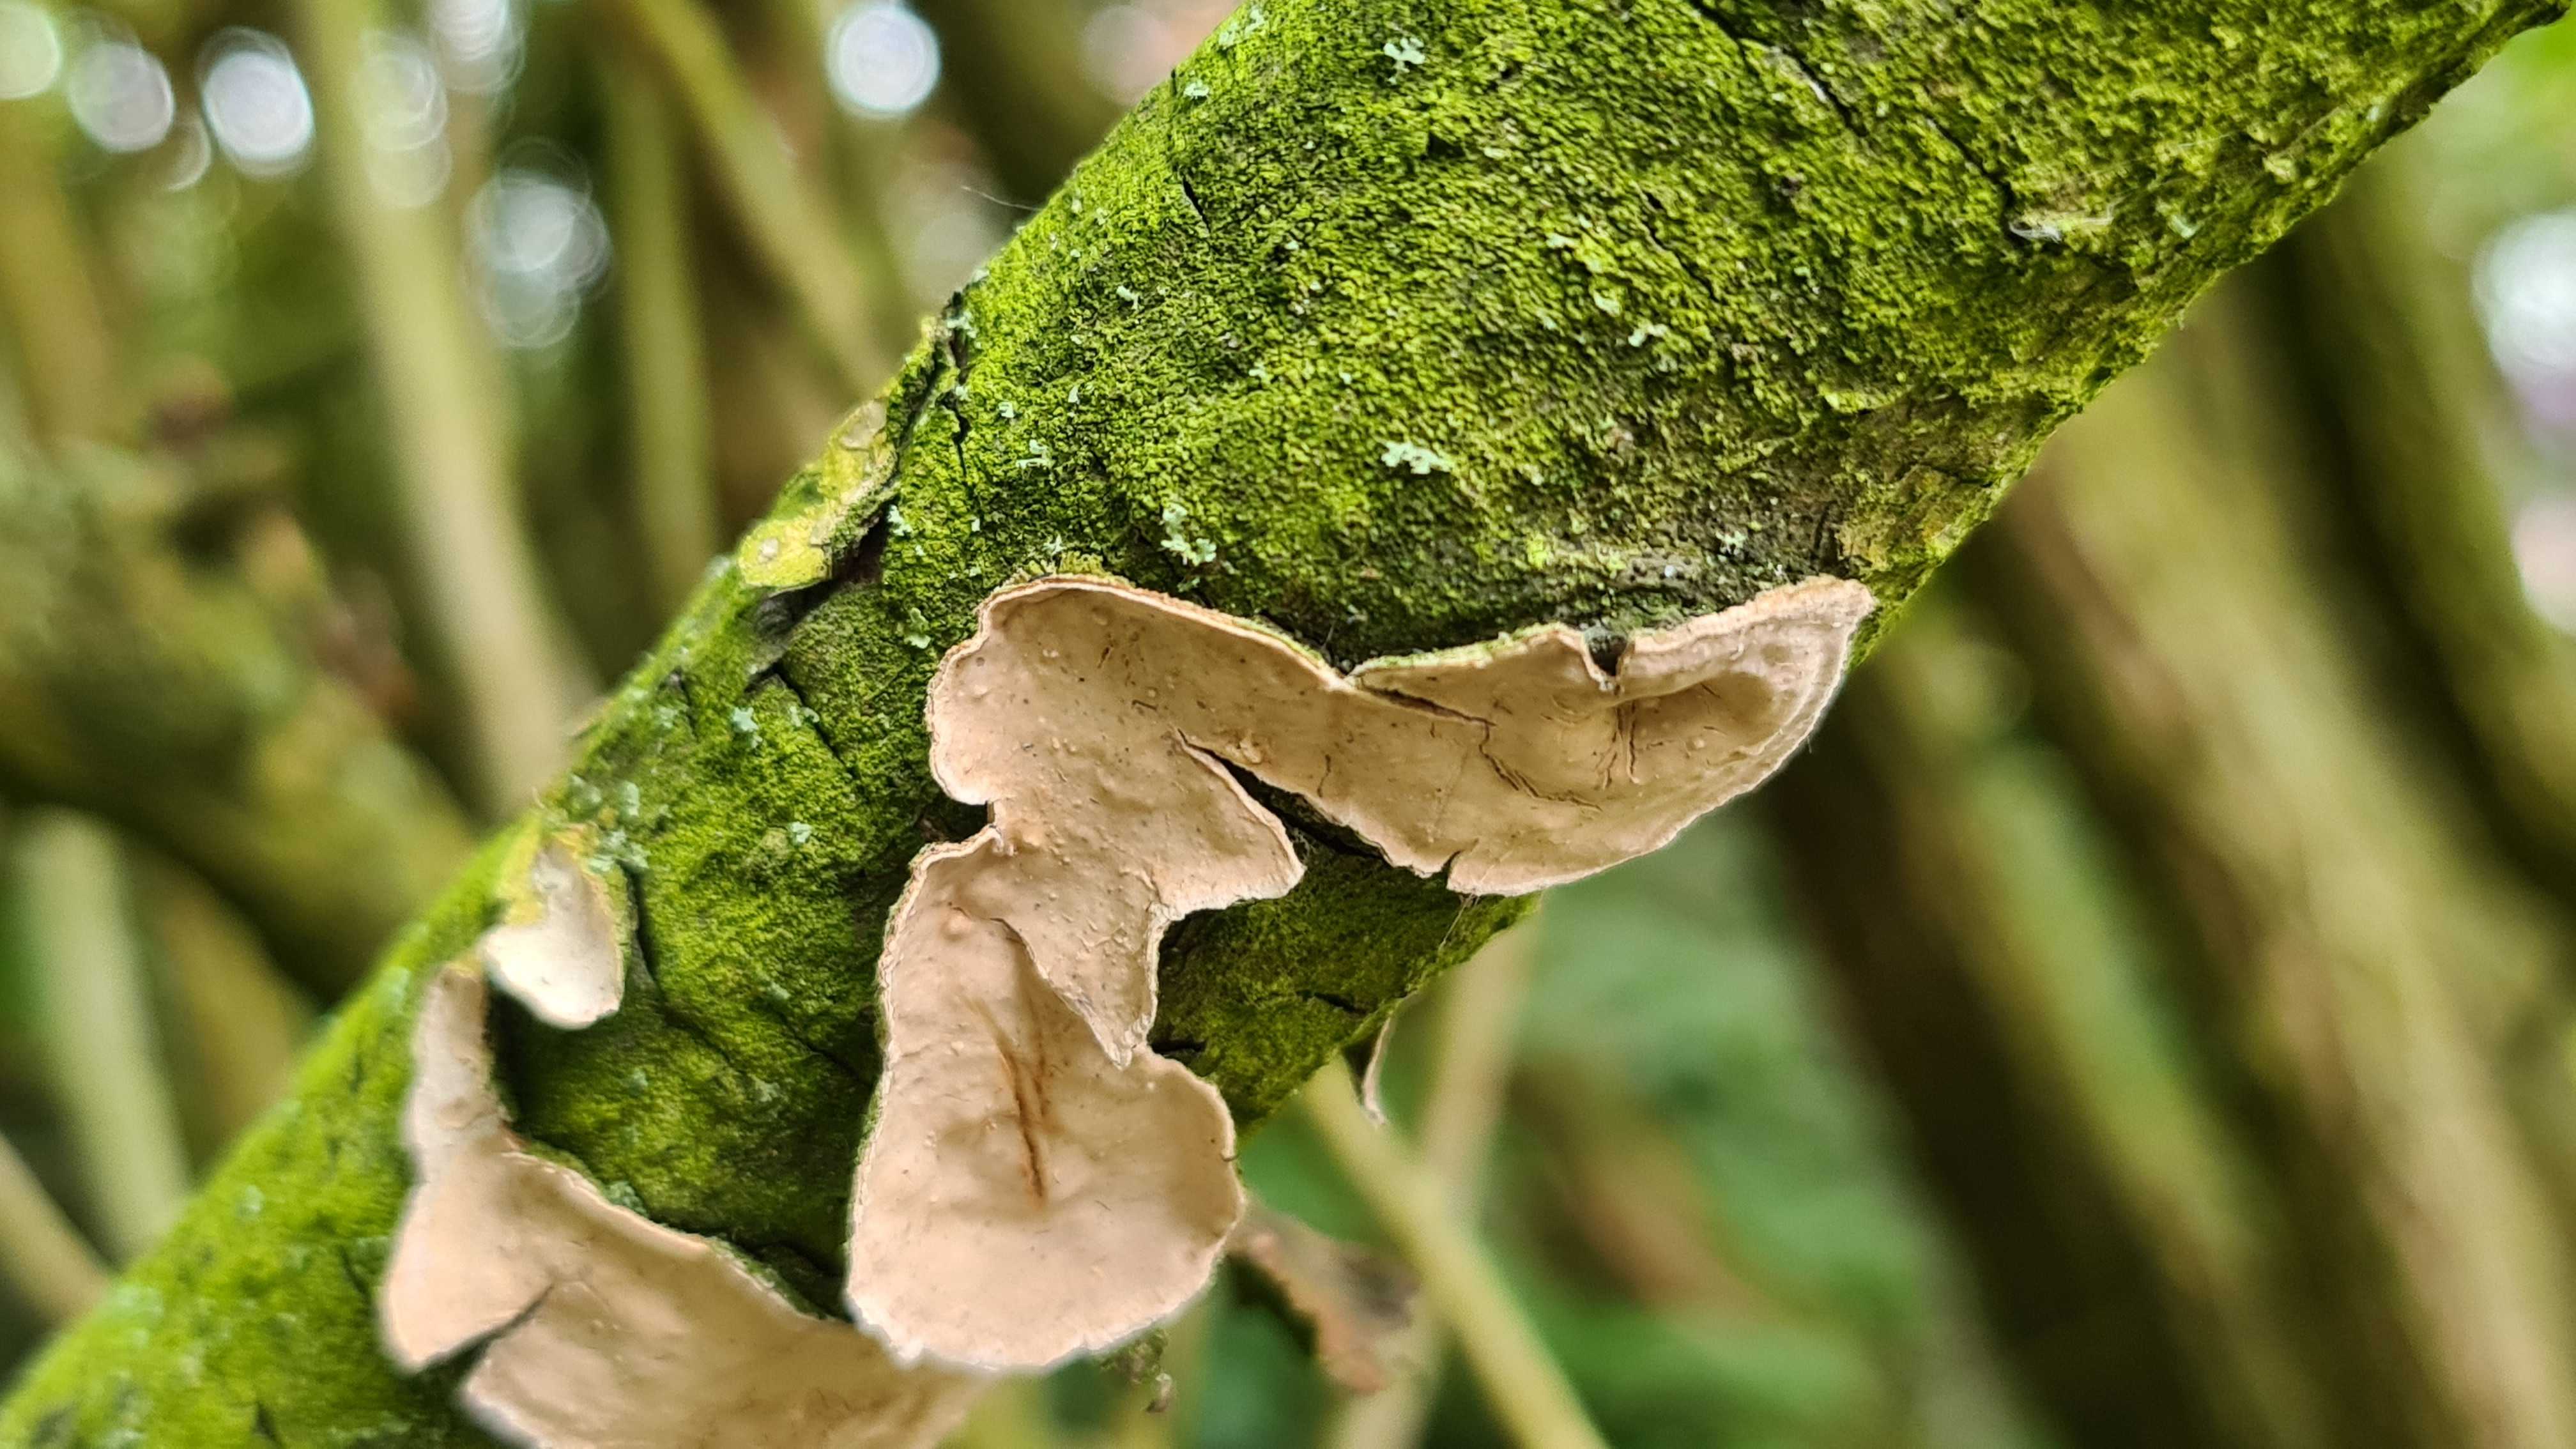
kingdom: Fungi
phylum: Basidiomycota
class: Agaricomycetes
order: Russulales
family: Stereaceae
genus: Stereum
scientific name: Stereum rugosum
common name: rynket lædersvamp
